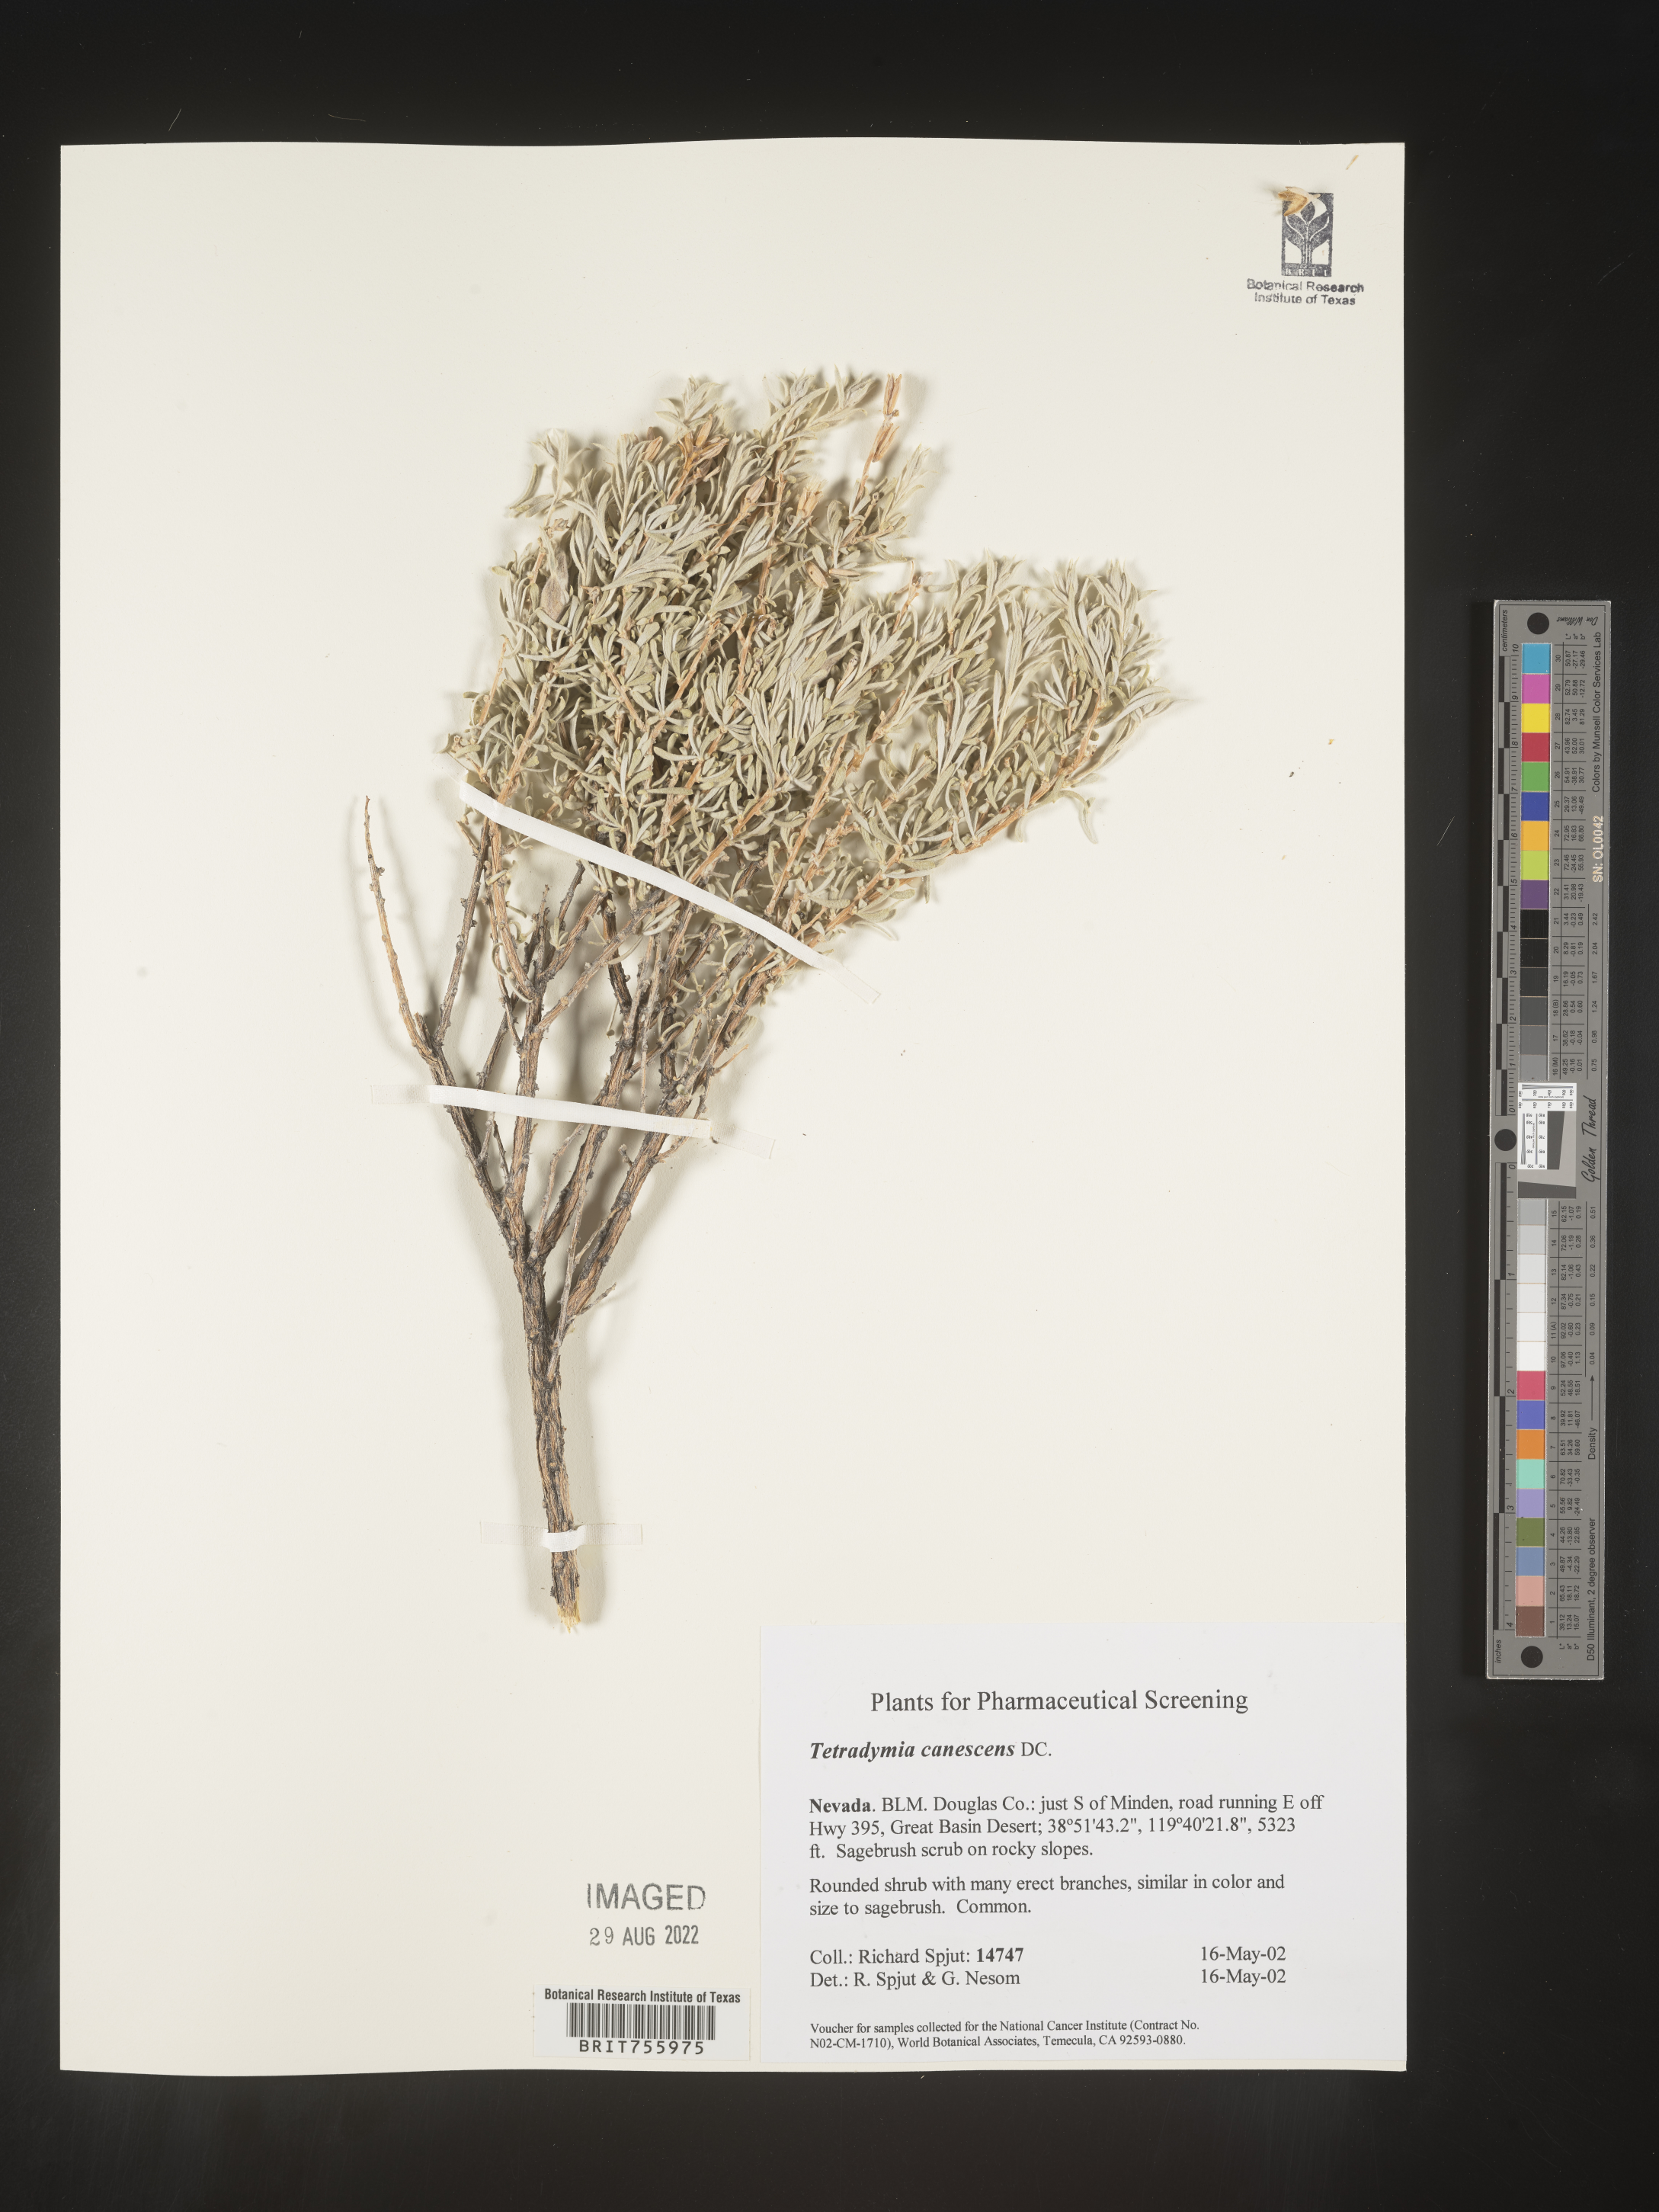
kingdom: Plantae
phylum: Tracheophyta
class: Magnoliopsida
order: Asterales
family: Asteraceae
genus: Tetradymia
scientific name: Tetradymia canescens
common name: Spineless horsebrush
